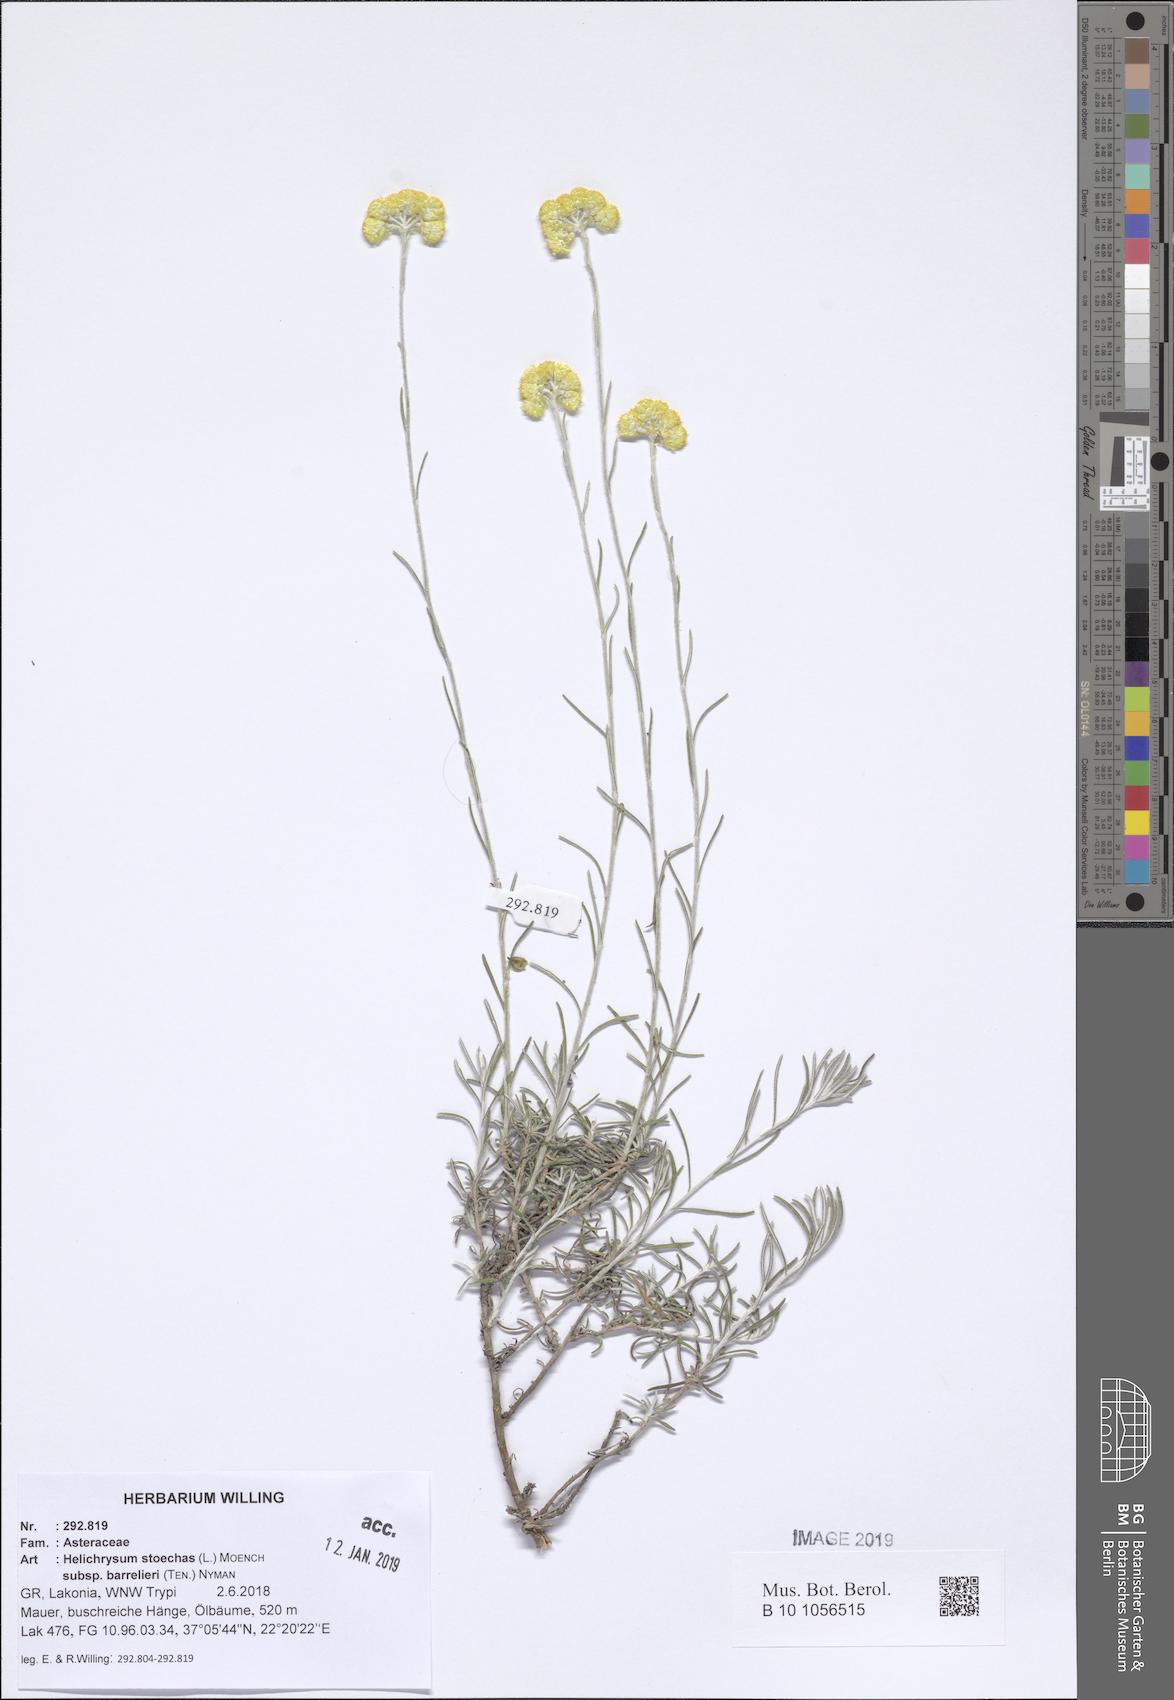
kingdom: Plantae
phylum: Tracheophyta
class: Magnoliopsida
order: Asterales
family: Asteraceae
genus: Helichrysum
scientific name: Helichrysum stoechas
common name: Goldilocks
